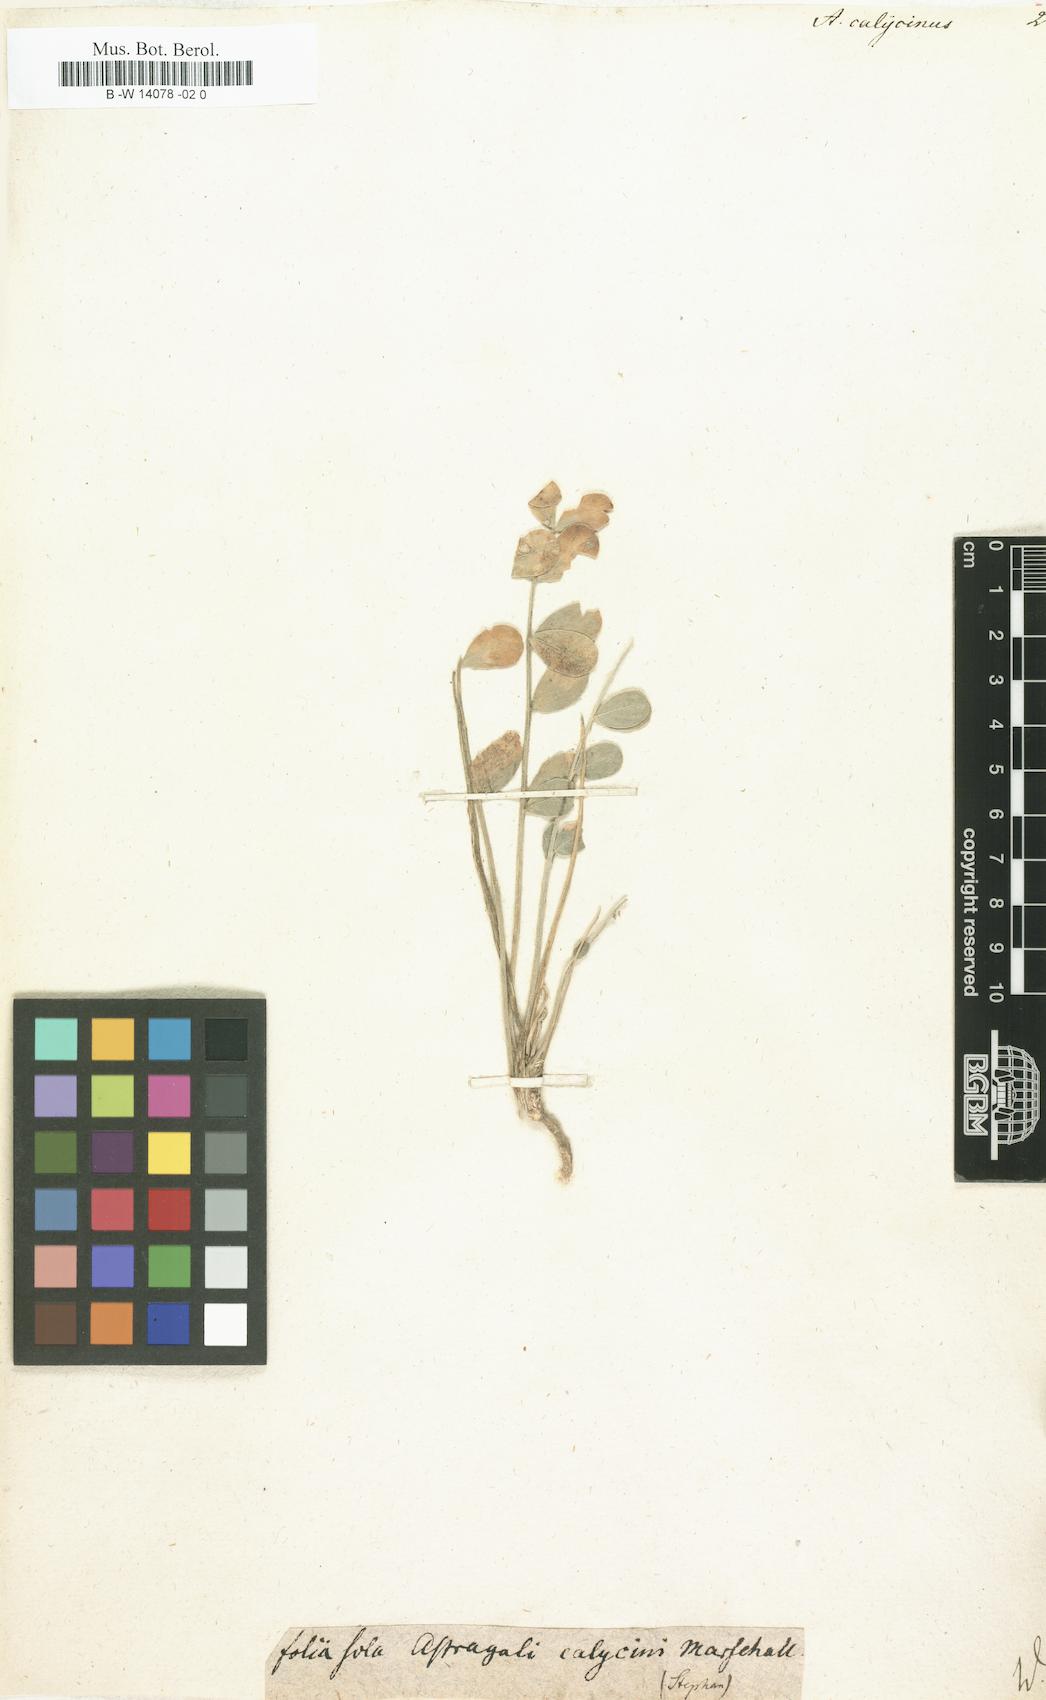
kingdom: Plantae
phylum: Tracheophyta
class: Magnoliopsida
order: Fabales
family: Fabaceae
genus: Astragalus
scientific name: Astragalus calycinus
